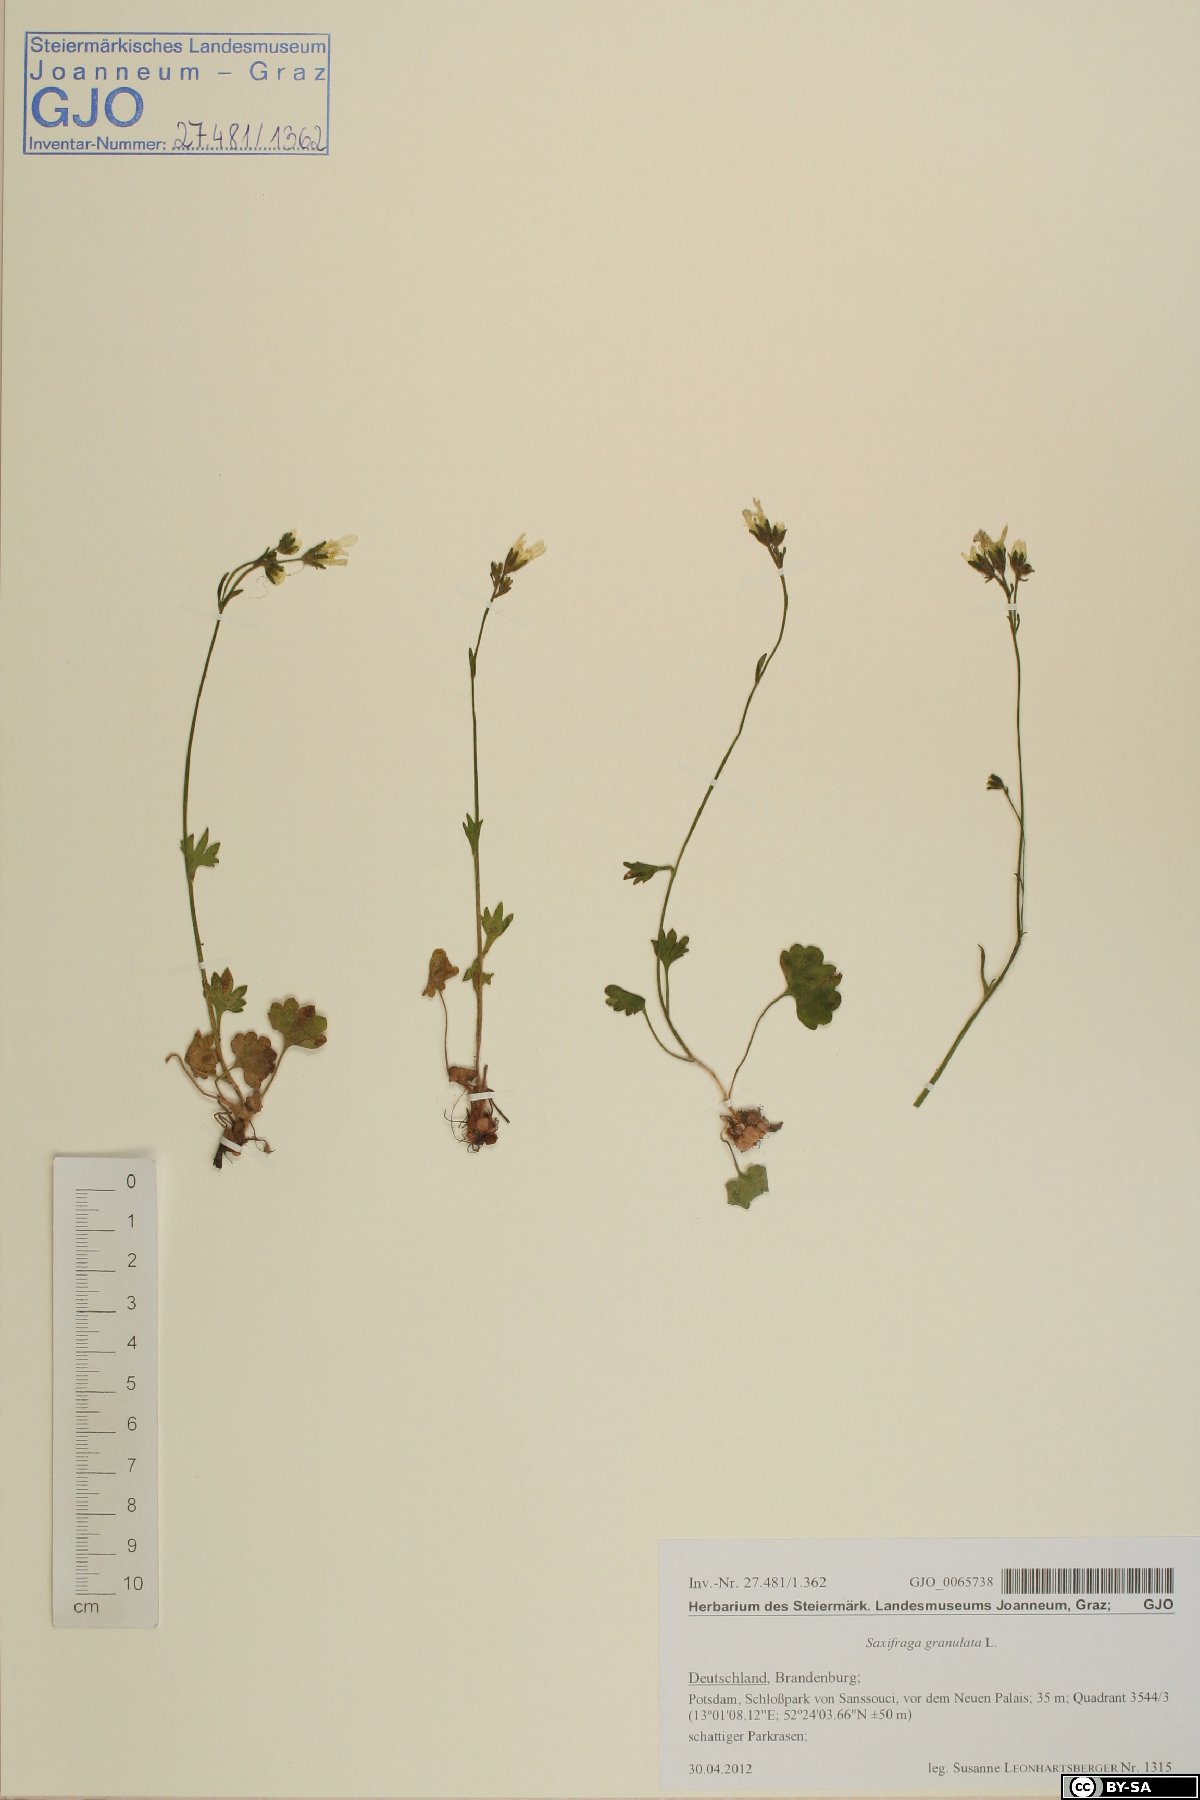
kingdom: Plantae
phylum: Tracheophyta
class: Magnoliopsida
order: Saxifragales
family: Saxifragaceae
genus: Saxifraga
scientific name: Saxifraga granulata
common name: Meadow saxifrage
